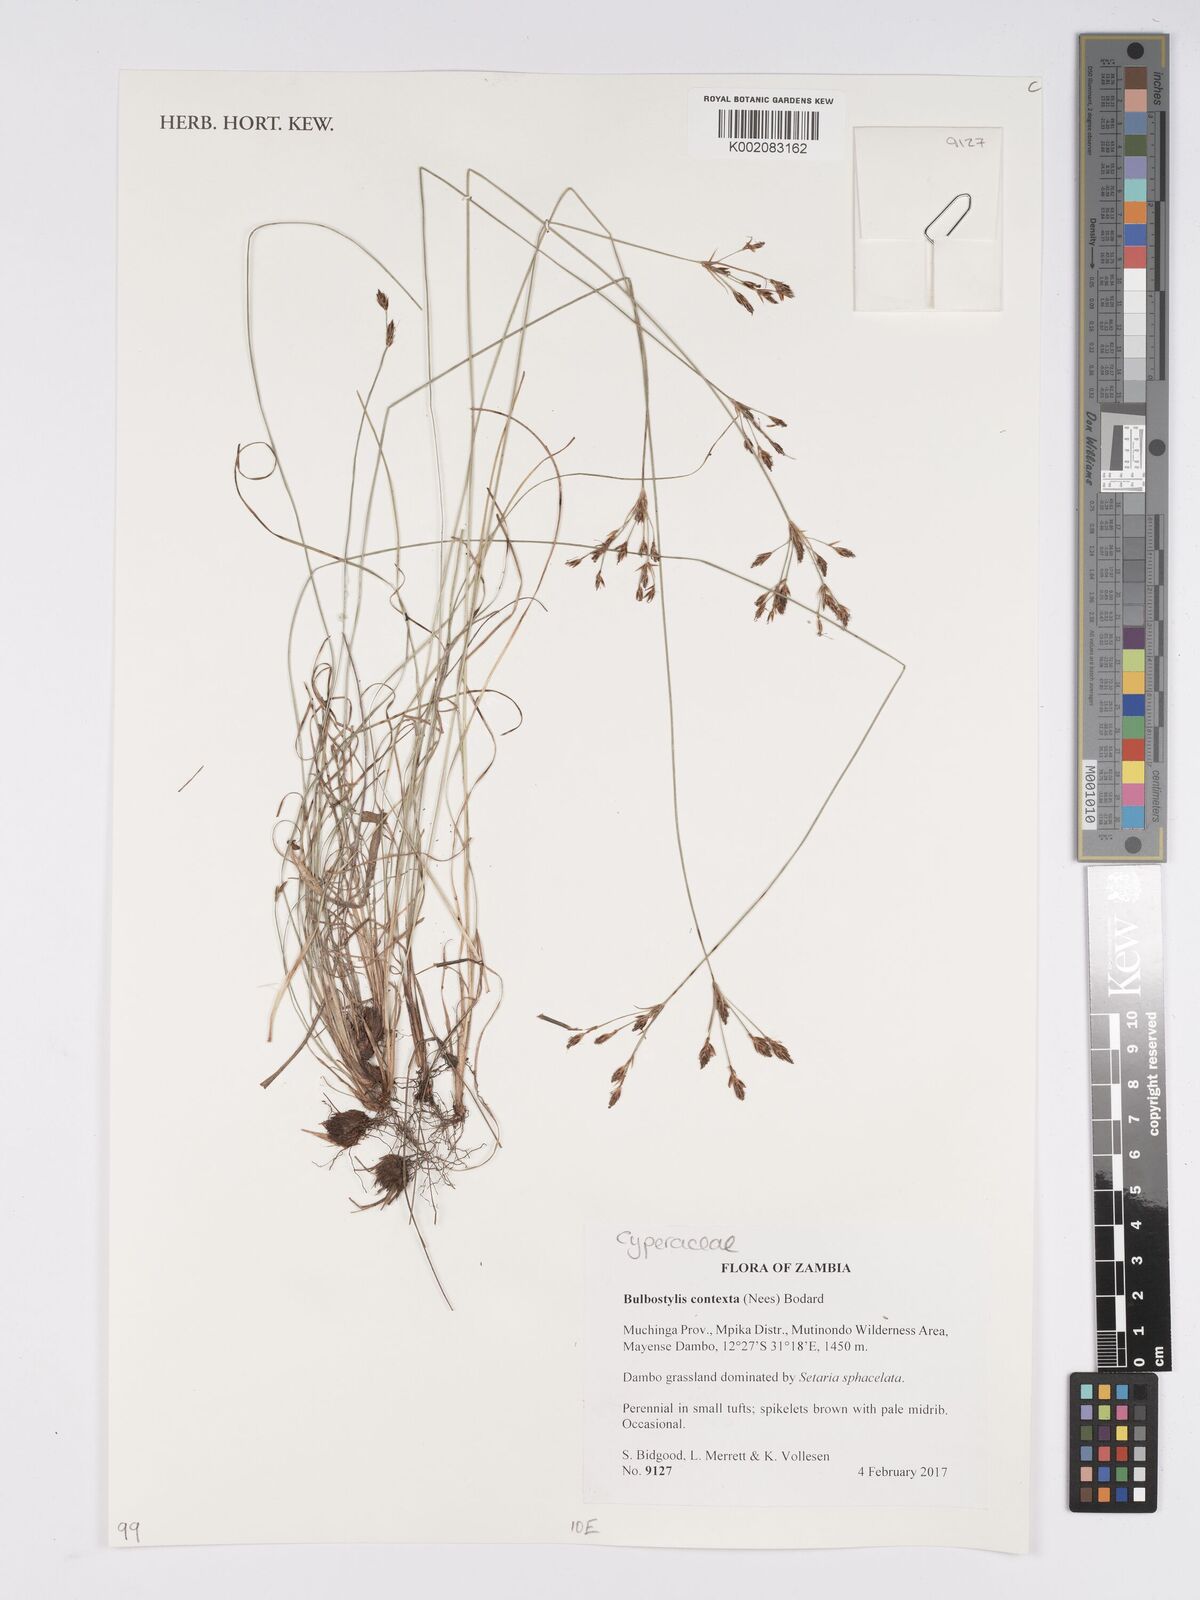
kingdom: Plantae
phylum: Tracheophyta
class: Liliopsida
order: Poales
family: Cyperaceae
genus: Bulbostylis
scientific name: Bulbostylis contexta
